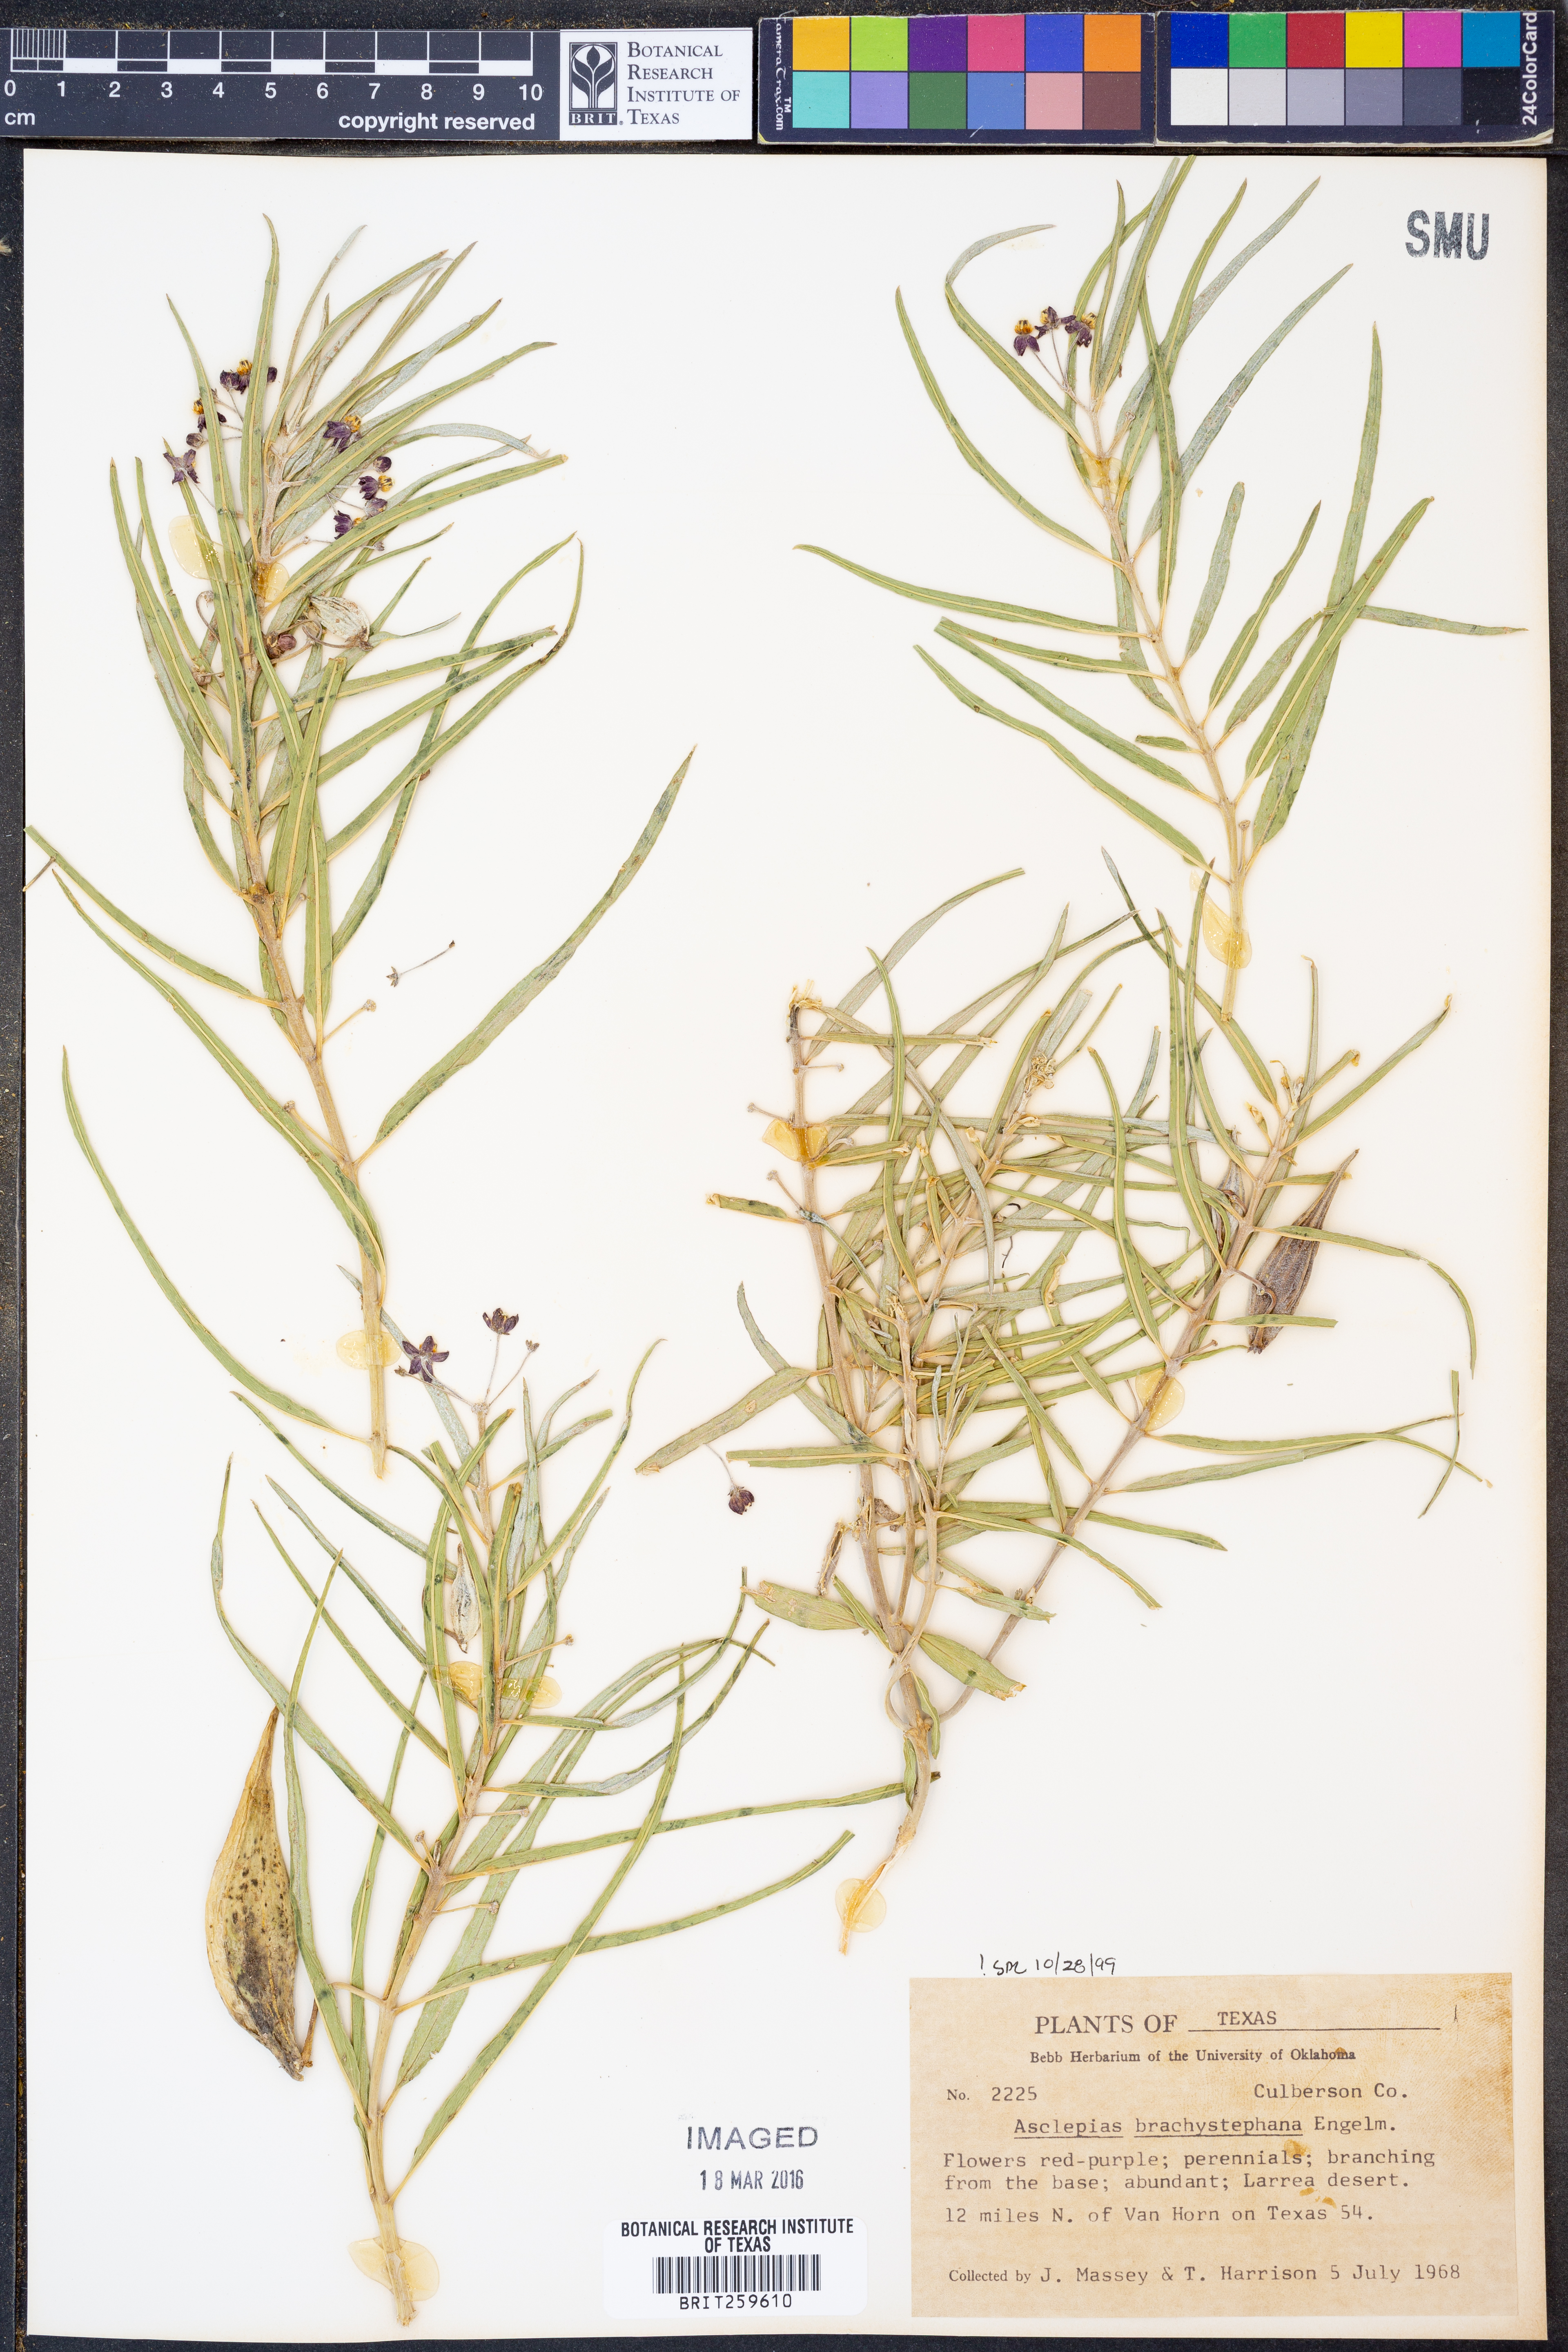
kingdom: Plantae
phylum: Tracheophyta
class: Magnoliopsida
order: Gentianales
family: Apocynaceae
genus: Asclepias
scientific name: Asclepias brachystephana
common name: Shortcrown milkweed
